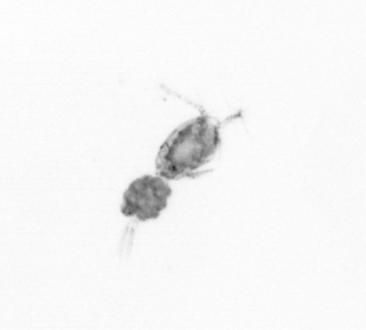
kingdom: Animalia
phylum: Arthropoda
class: Copepoda
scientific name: Copepoda
